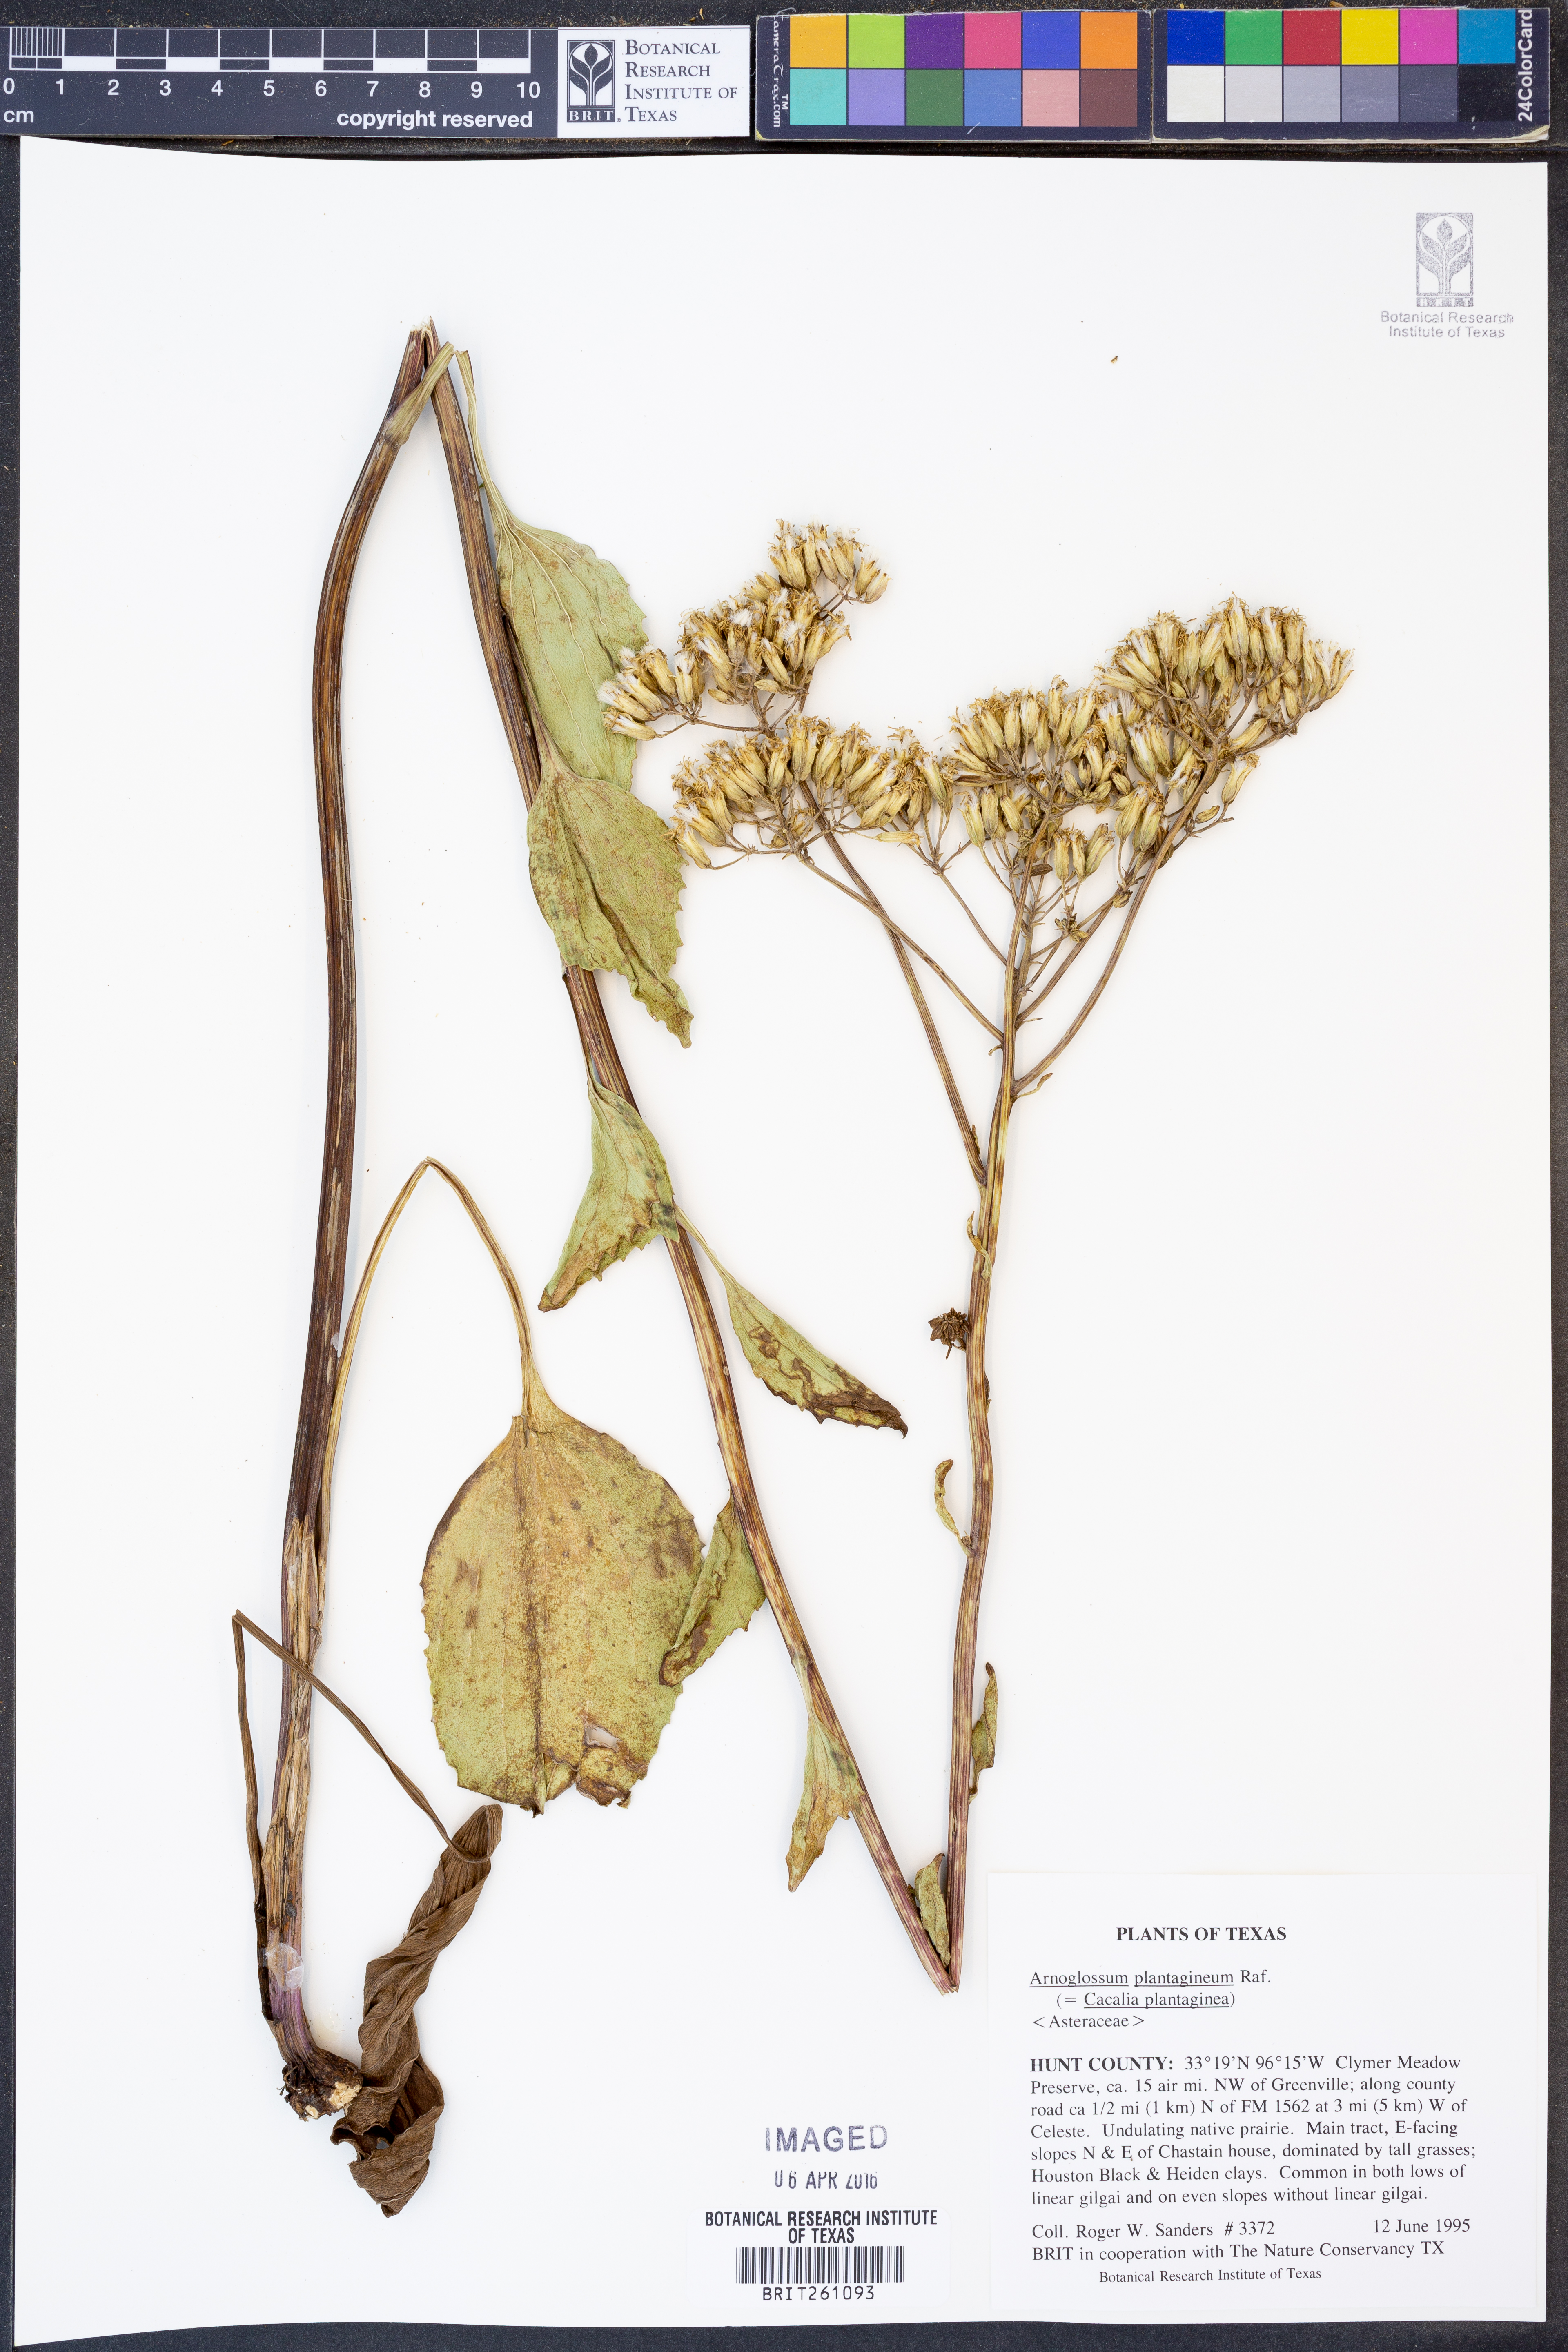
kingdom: Plantae
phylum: Tracheophyta
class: Magnoliopsida
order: Asterales
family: Asteraceae
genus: Arnoglossum
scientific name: Arnoglossum plantagineum
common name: Groove-stemmed indian-plantain
